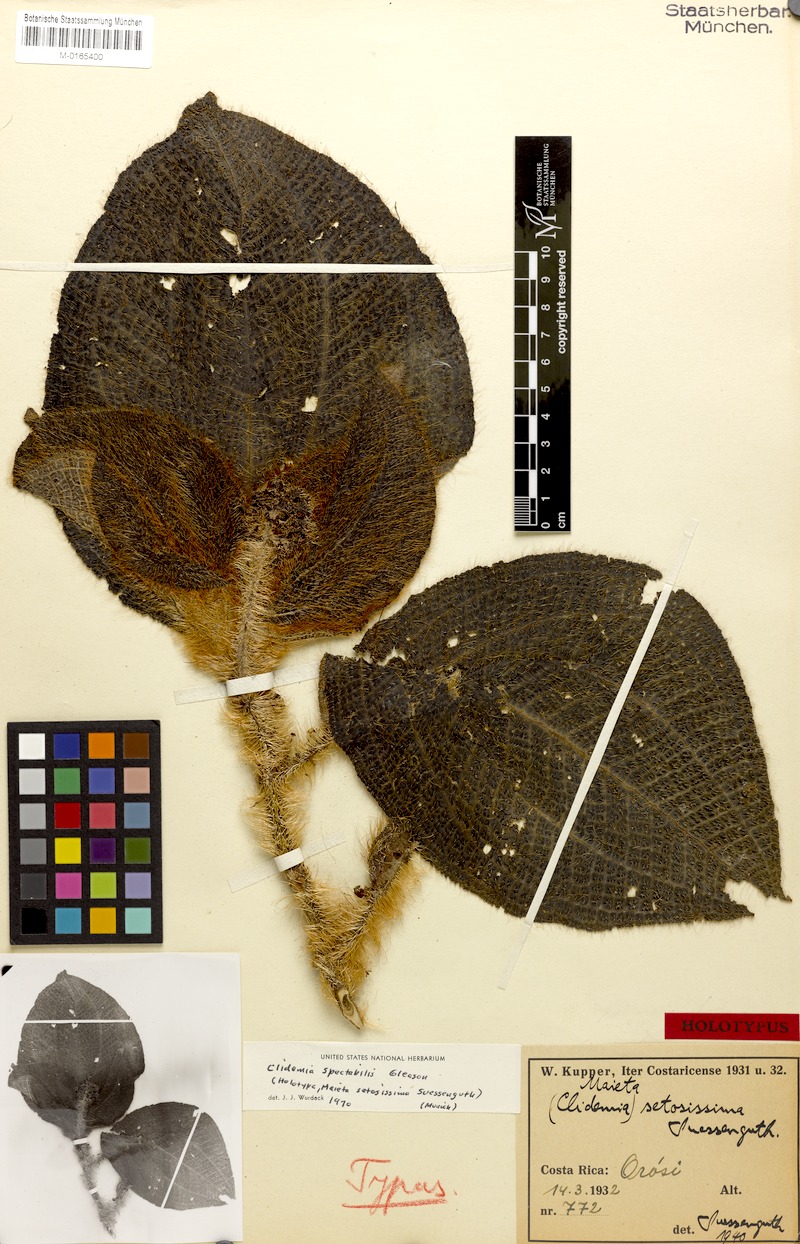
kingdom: Plantae
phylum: Tracheophyta
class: Magnoliopsida
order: Myrtales
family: Melastomataceae
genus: Miconia
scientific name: Miconia spectabilis
